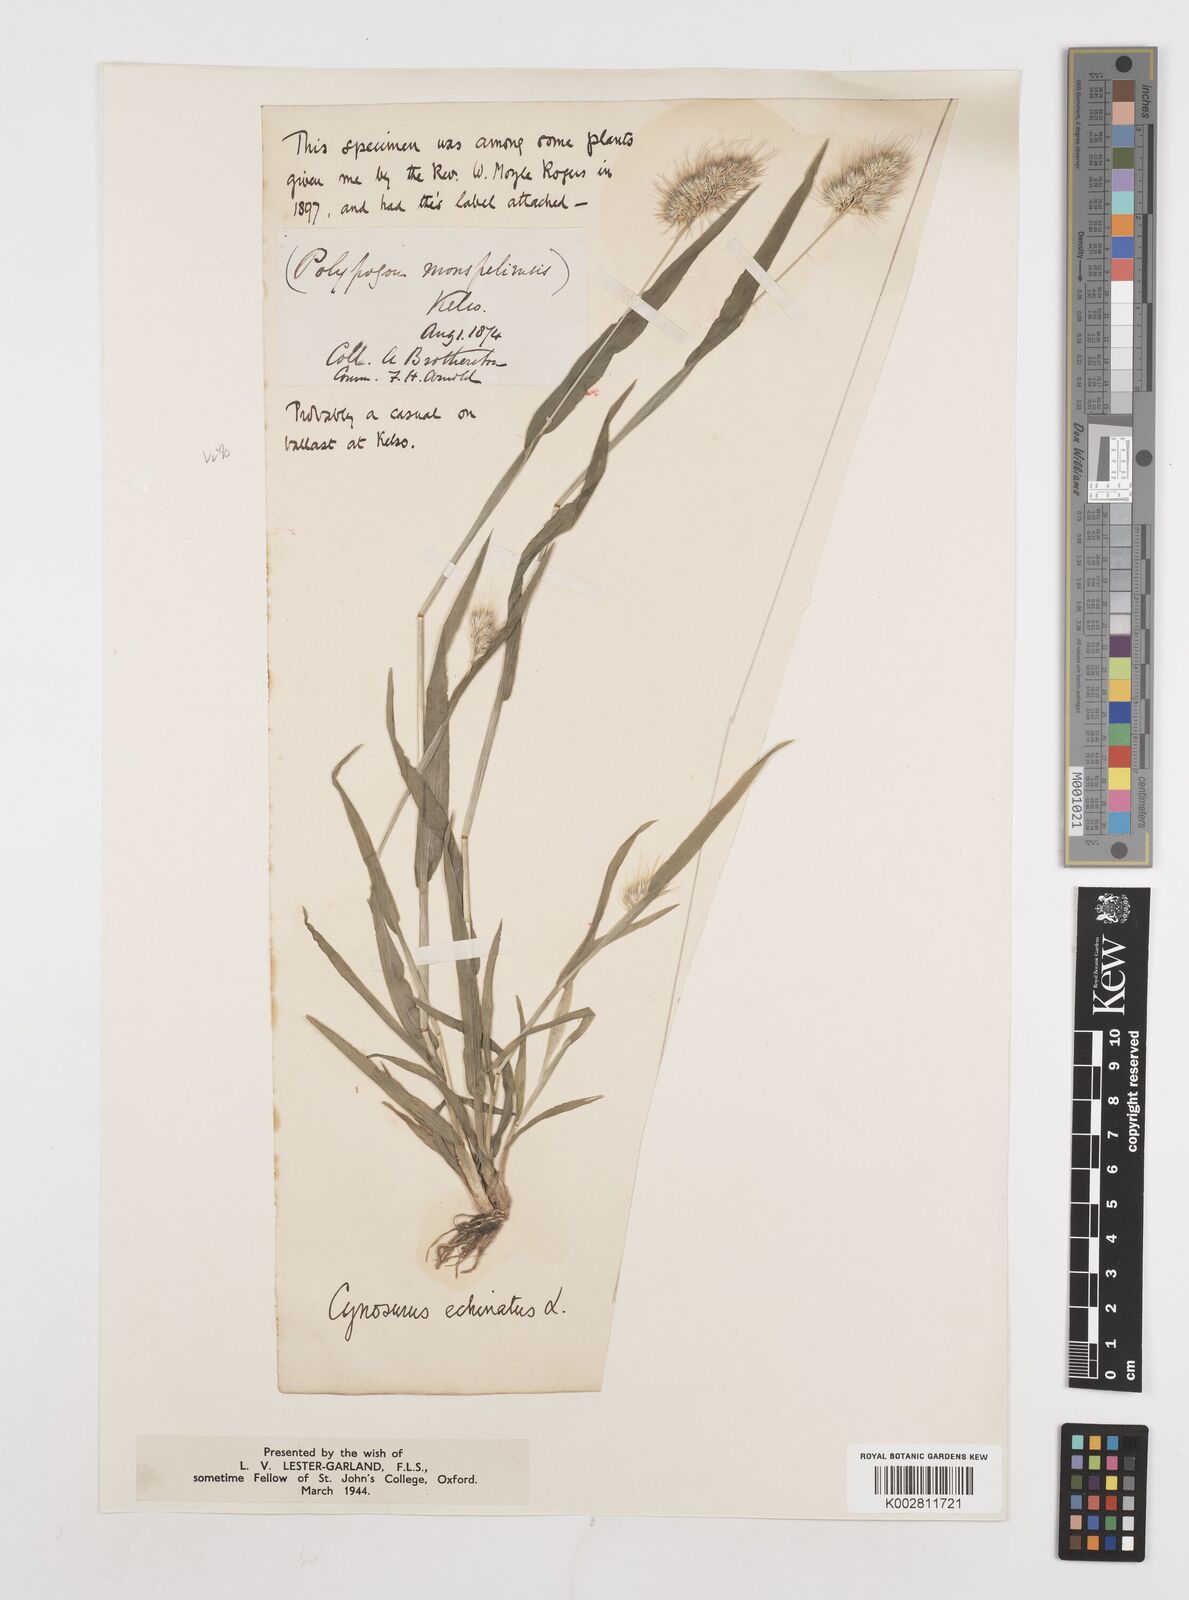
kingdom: Plantae
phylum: Tracheophyta
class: Liliopsida
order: Poales
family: Poaceae
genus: Cynosurus
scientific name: Cynosurus echinatus
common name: Rough dog's-tail
